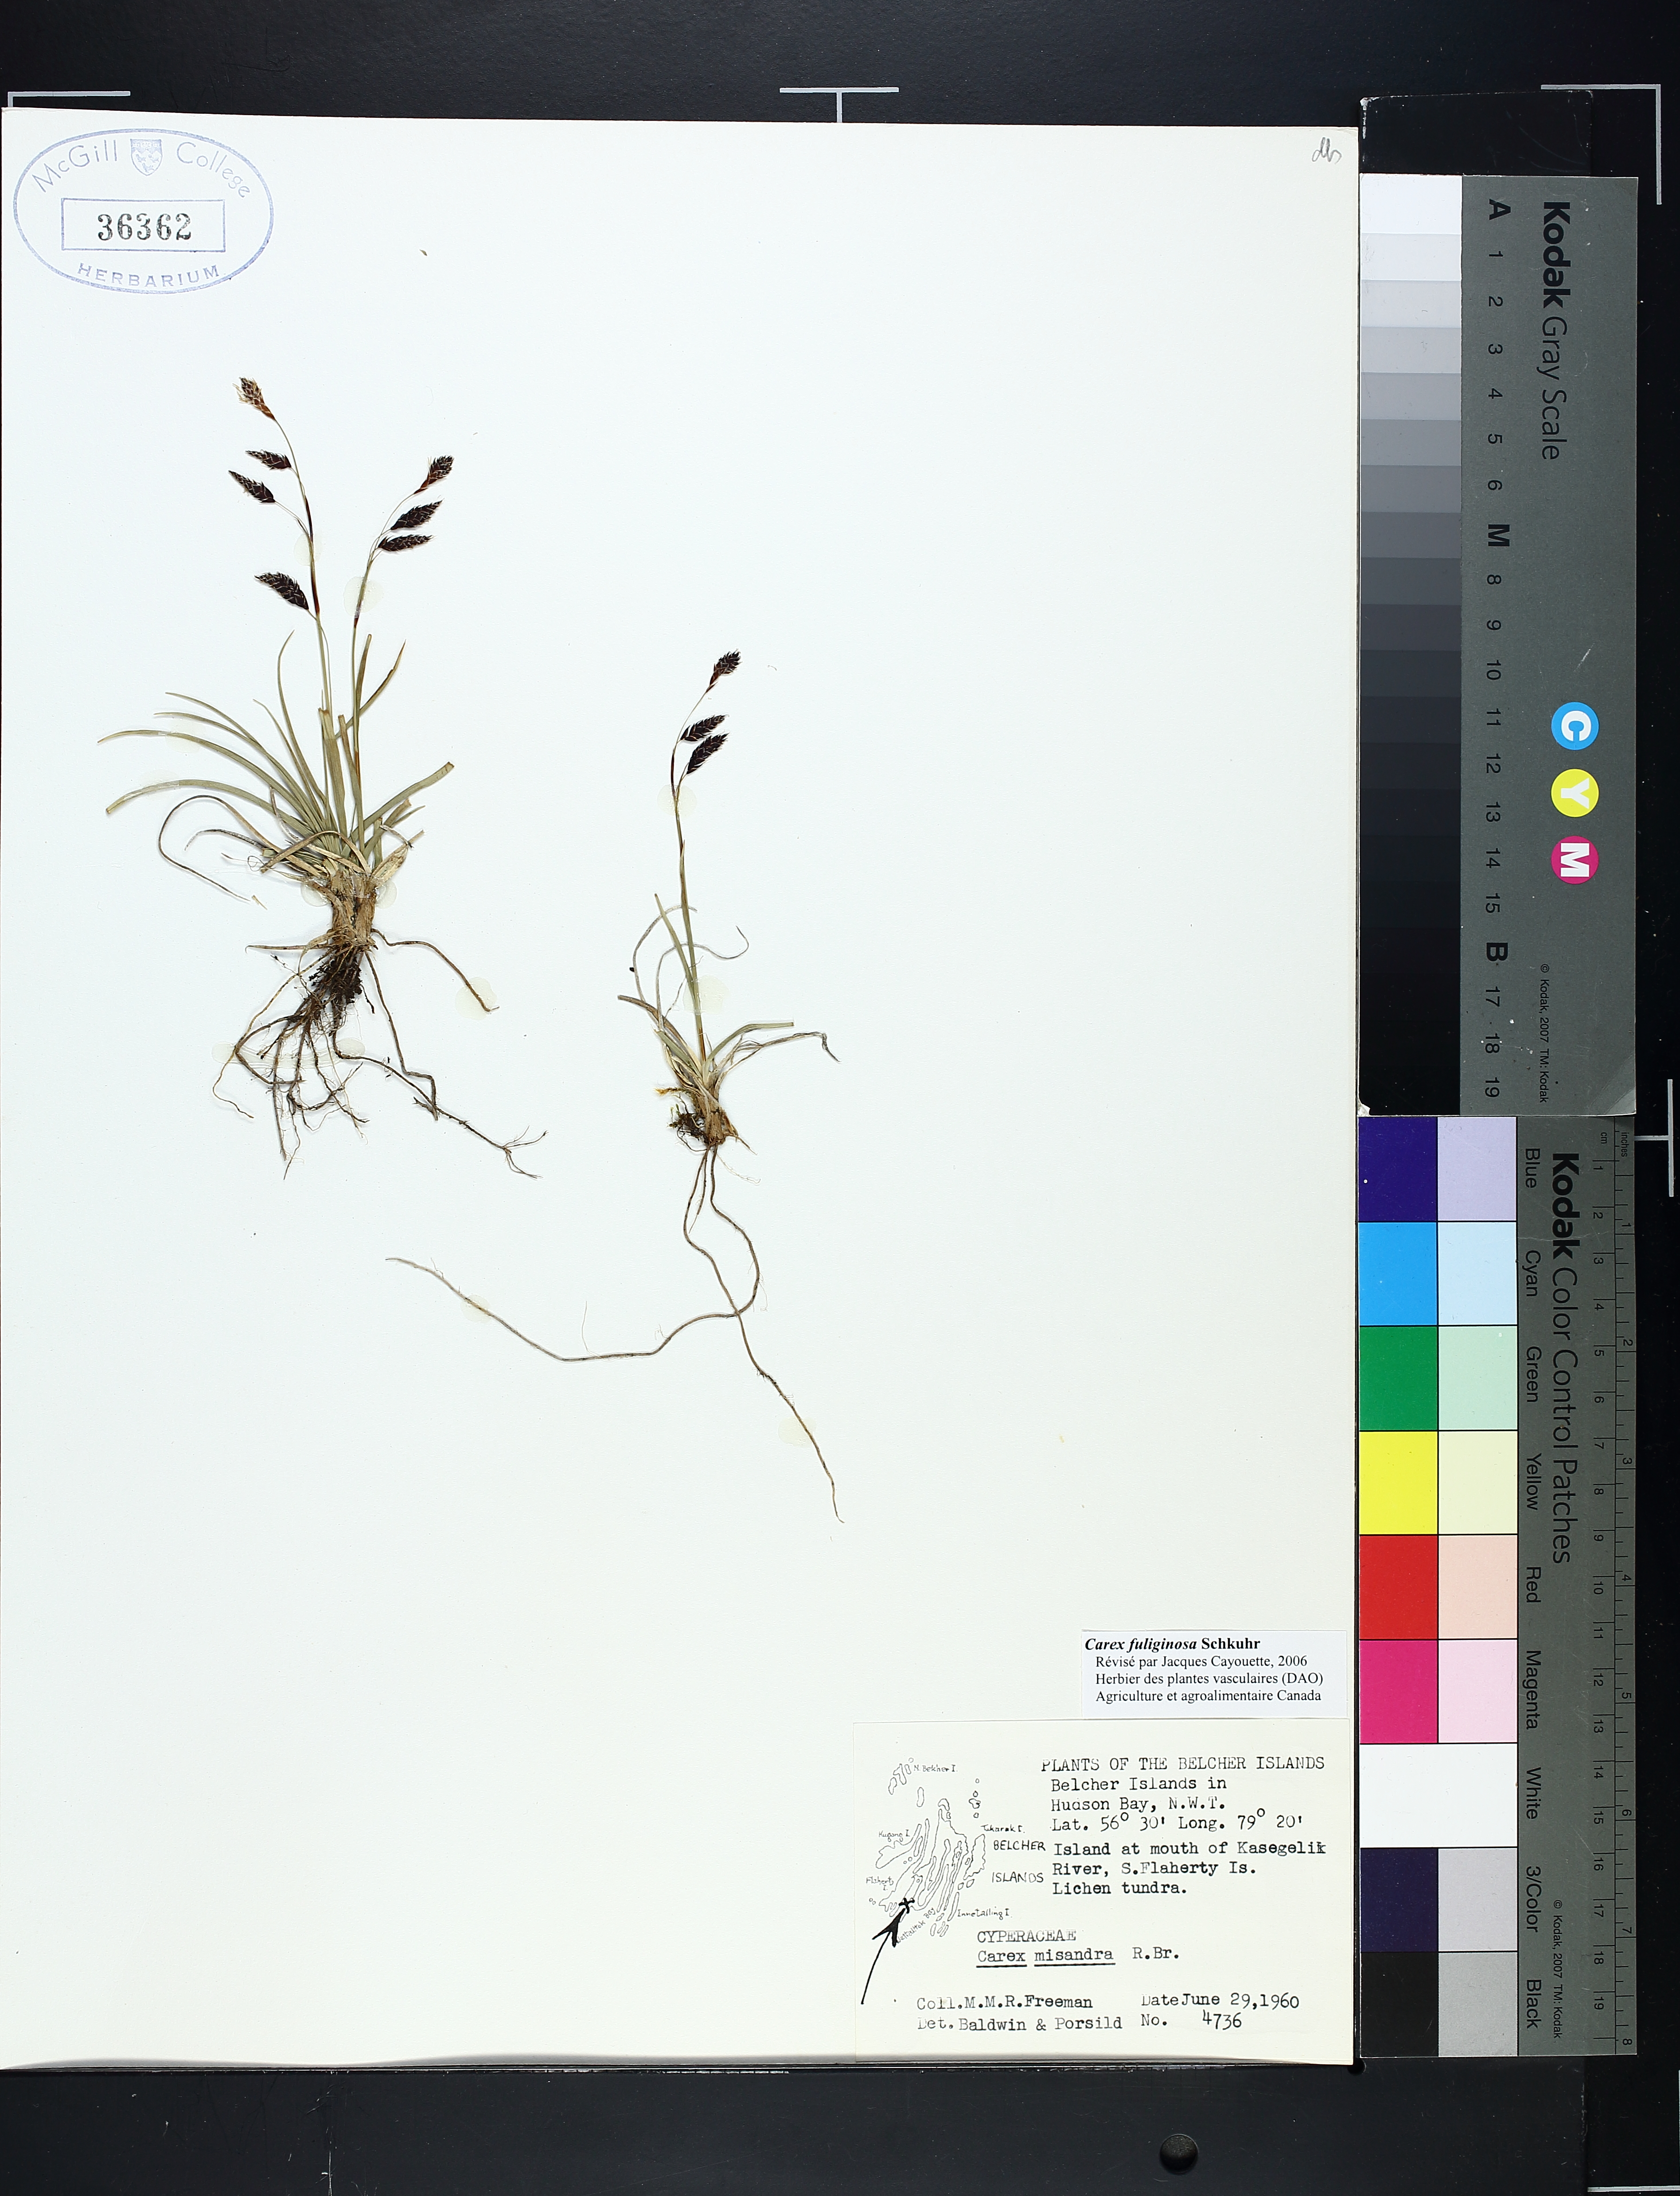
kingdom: Plantae
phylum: Tracheophyta
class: Liliopsida
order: Poales
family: Cyperaceae
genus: Carex
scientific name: Carex fuliginosa
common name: Few-flowered sedge
